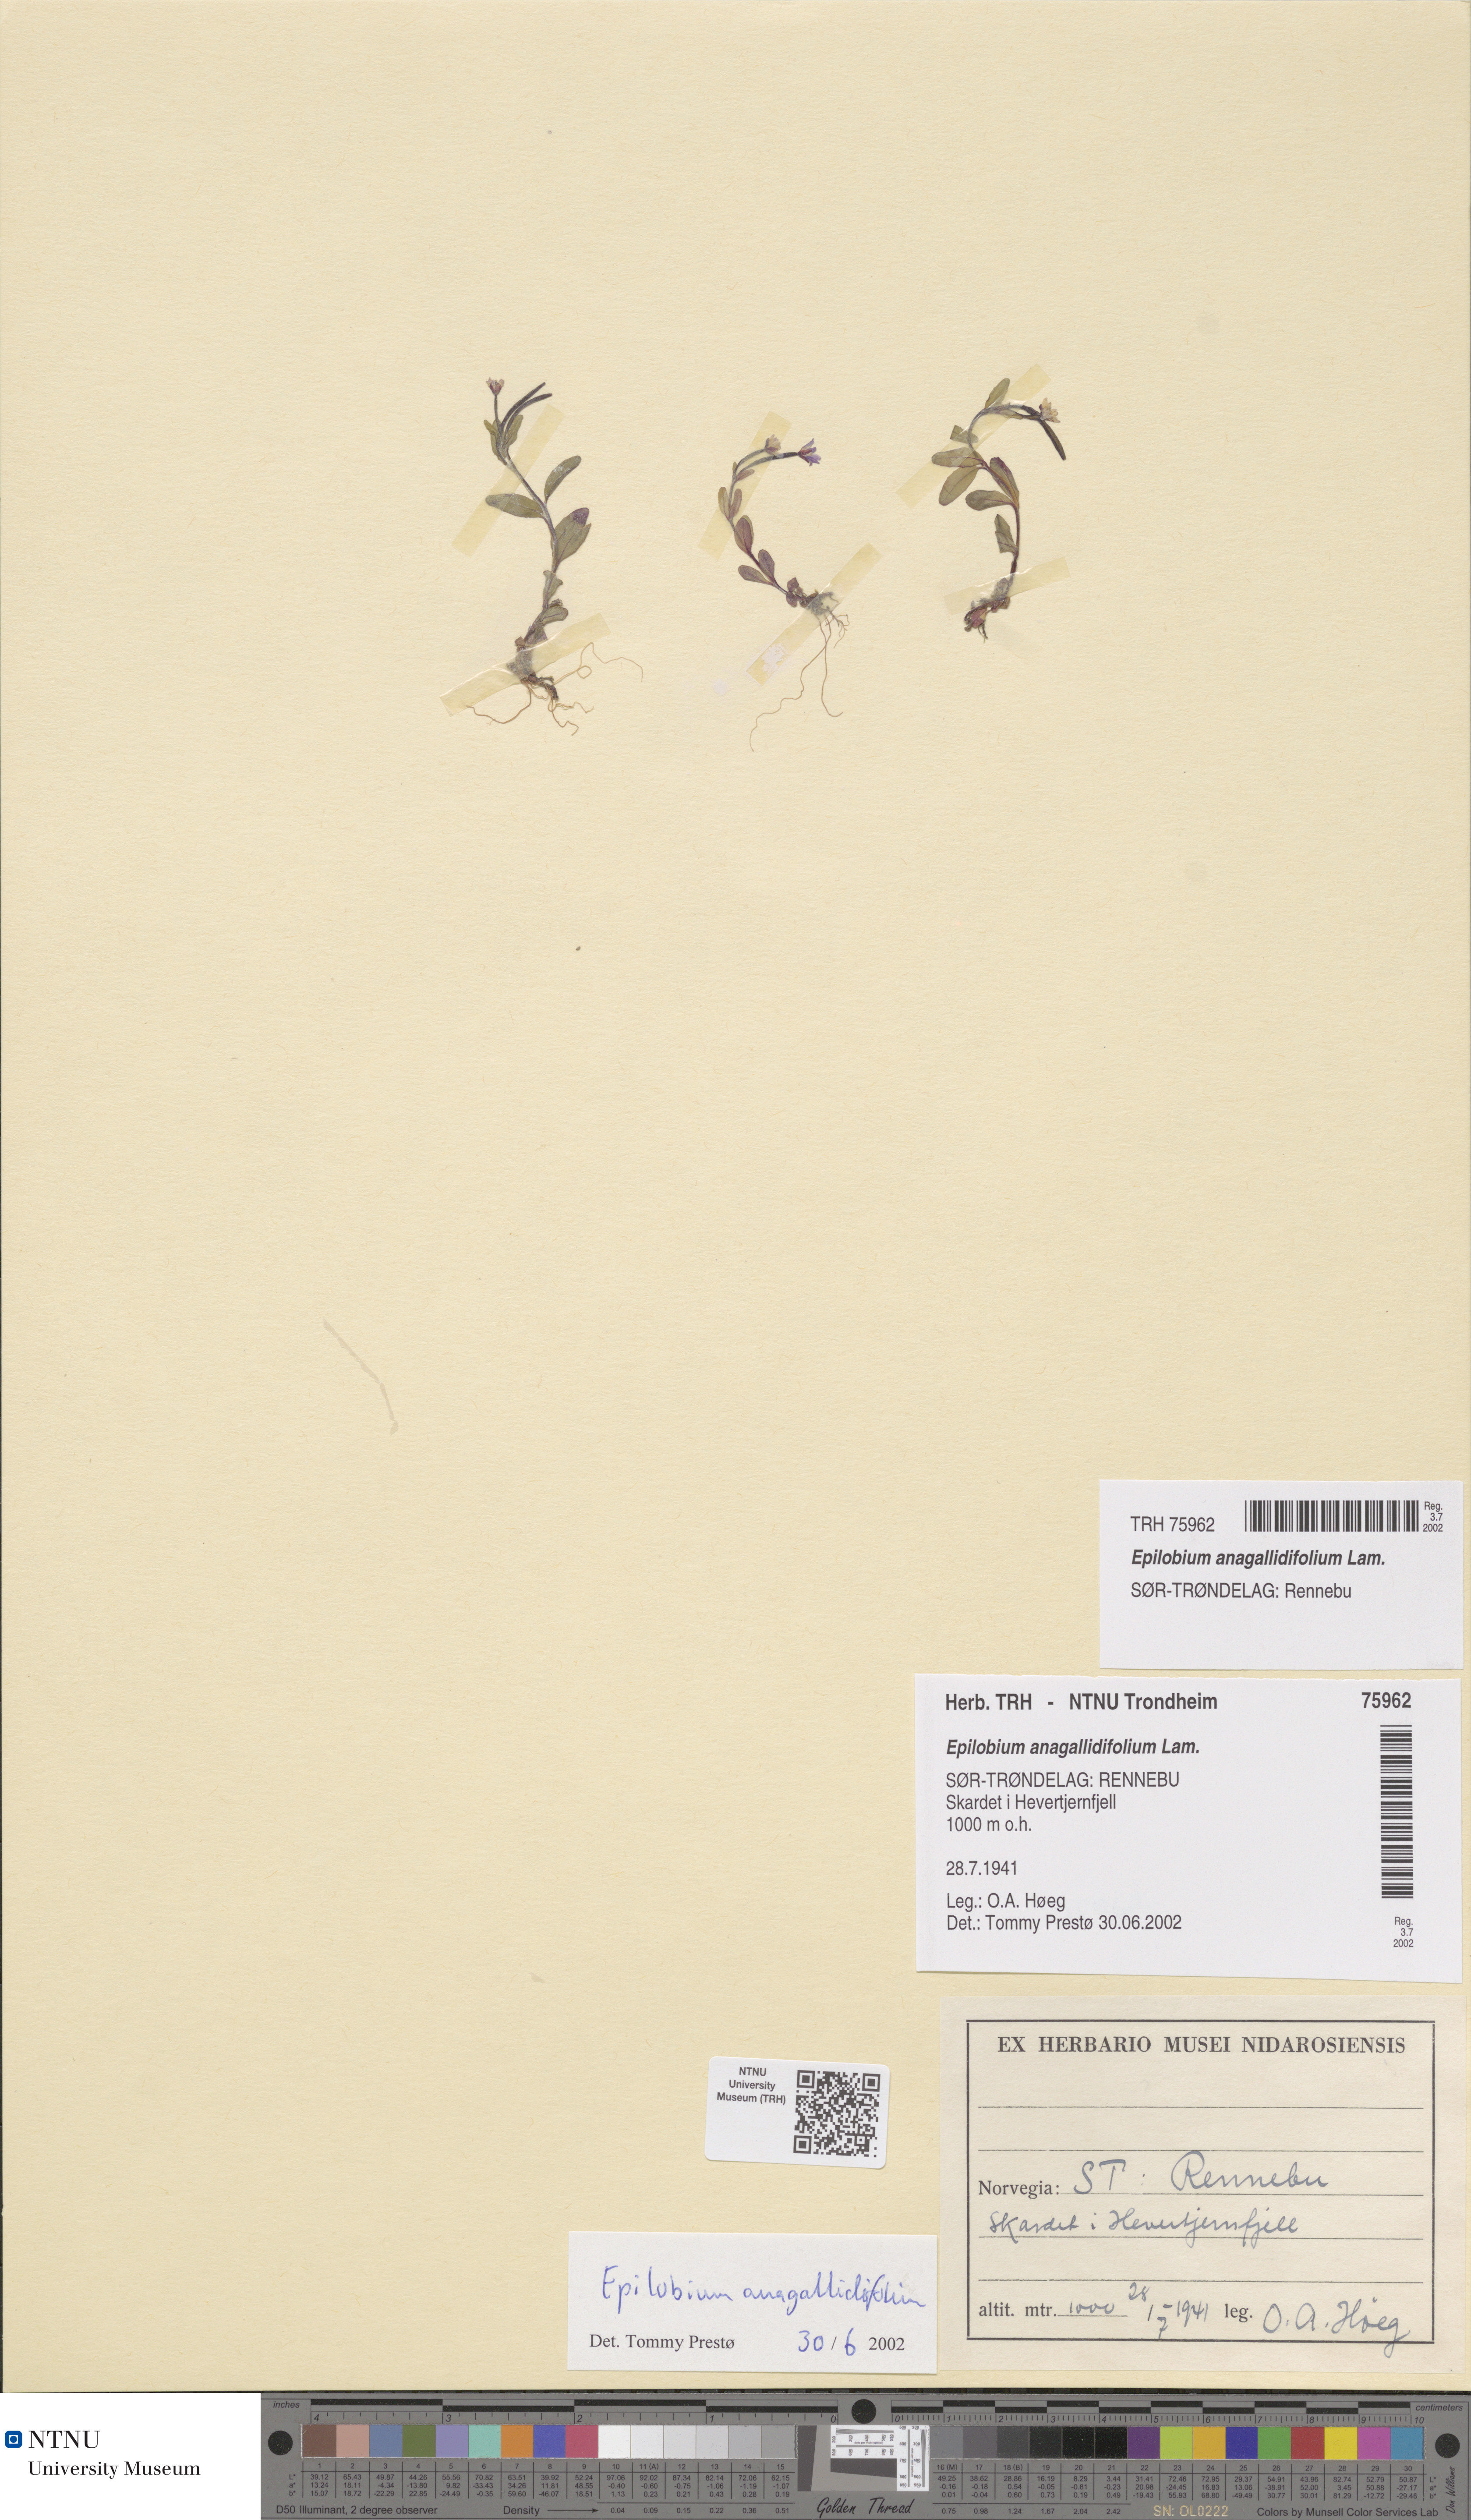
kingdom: Plantae
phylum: Tracheophyta
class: Magnoliopsida
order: Myrtales
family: Onagraceae
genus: Epilobium
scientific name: Epilobium anagallidifolium
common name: Alpine willowherb
